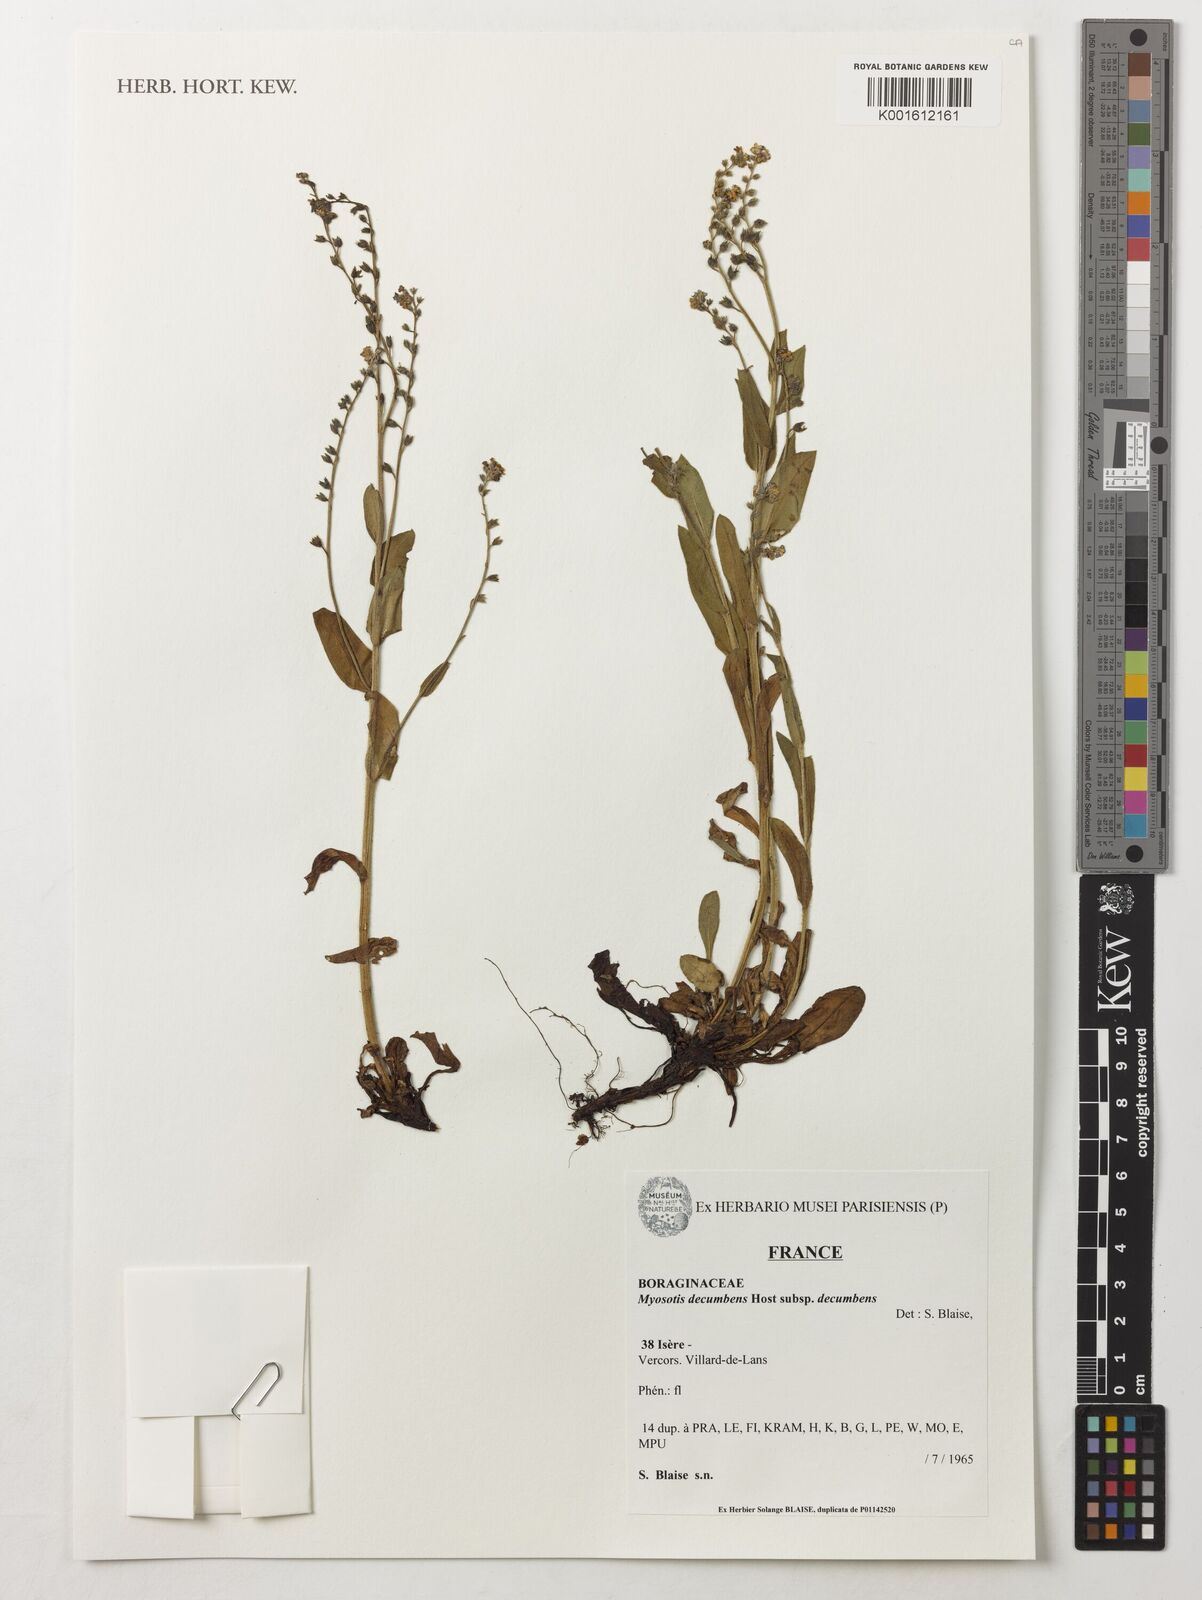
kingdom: Plantae
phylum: Tracheophyta
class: Magnoliopsida
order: Boraginales
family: Boraginaceae
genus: Myosotis
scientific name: Myosotis decumbens
